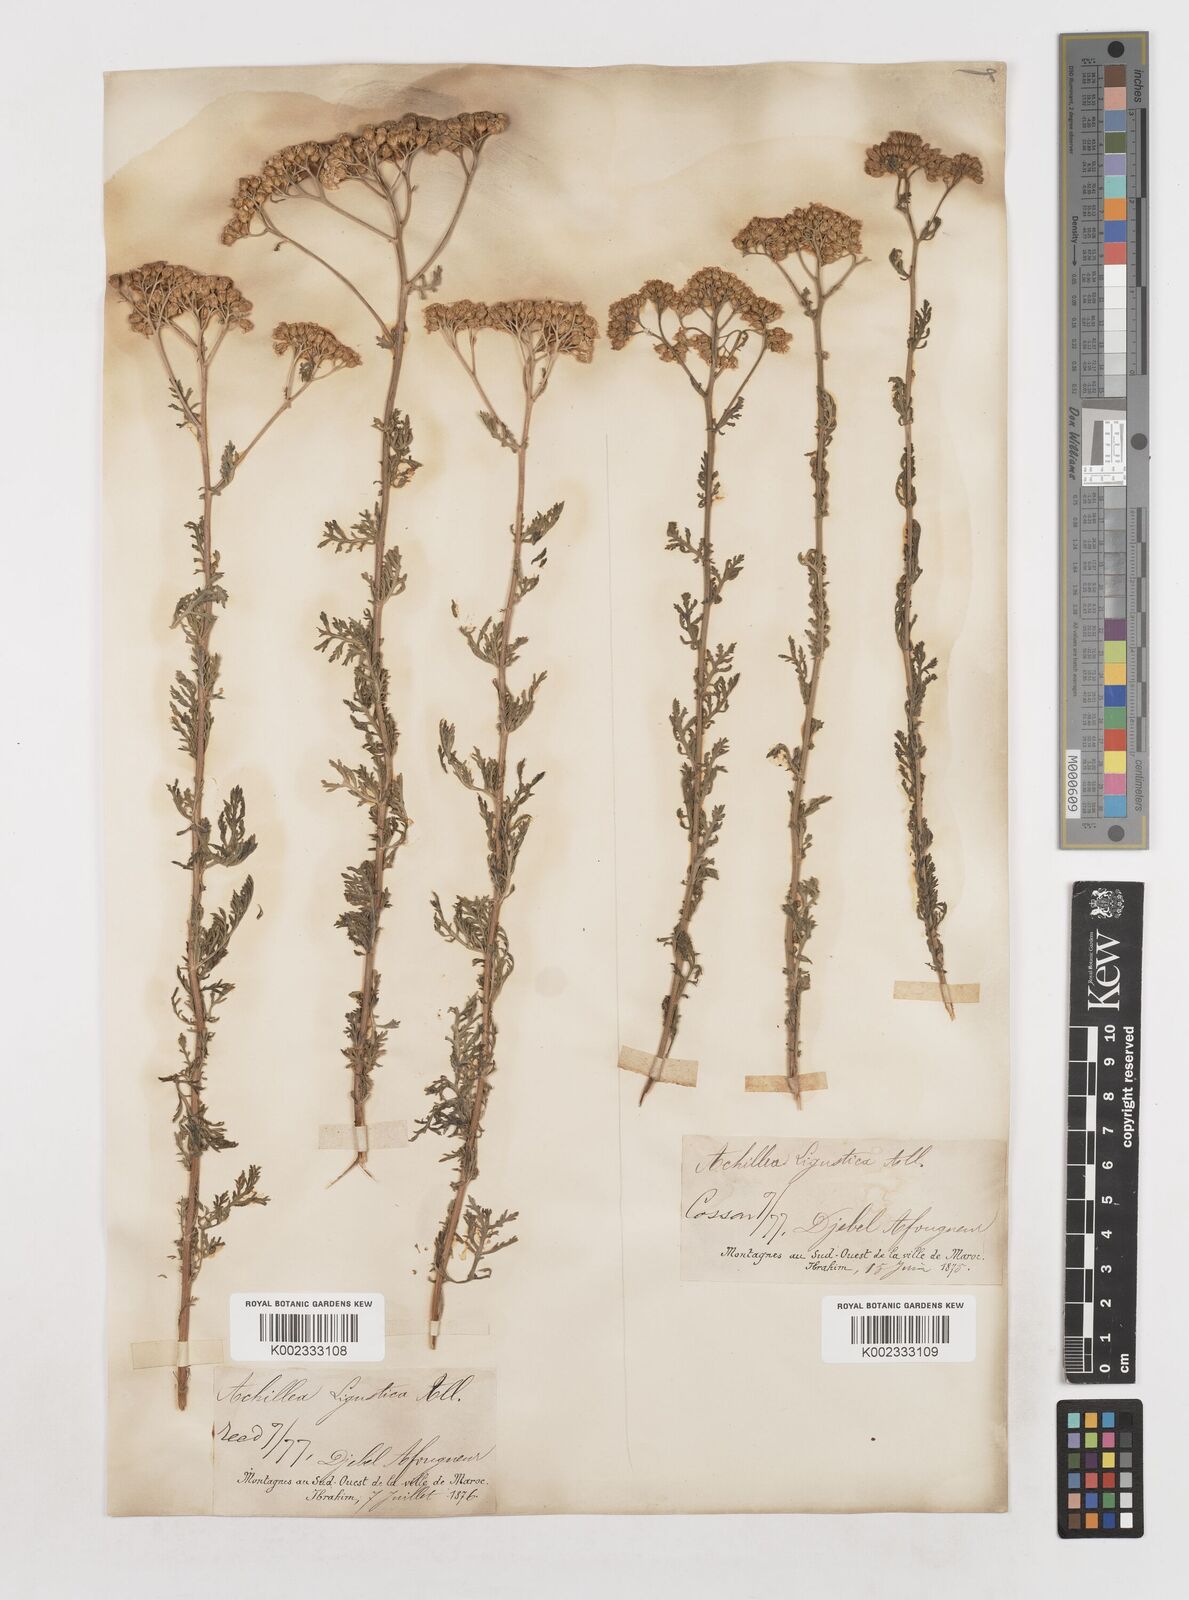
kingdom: Plantae
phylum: Tracheophyta
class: Magnoliopsida
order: Asterales
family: Asteraceae
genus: Achillea
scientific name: Achillea ligustica
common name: Southern yarrow
